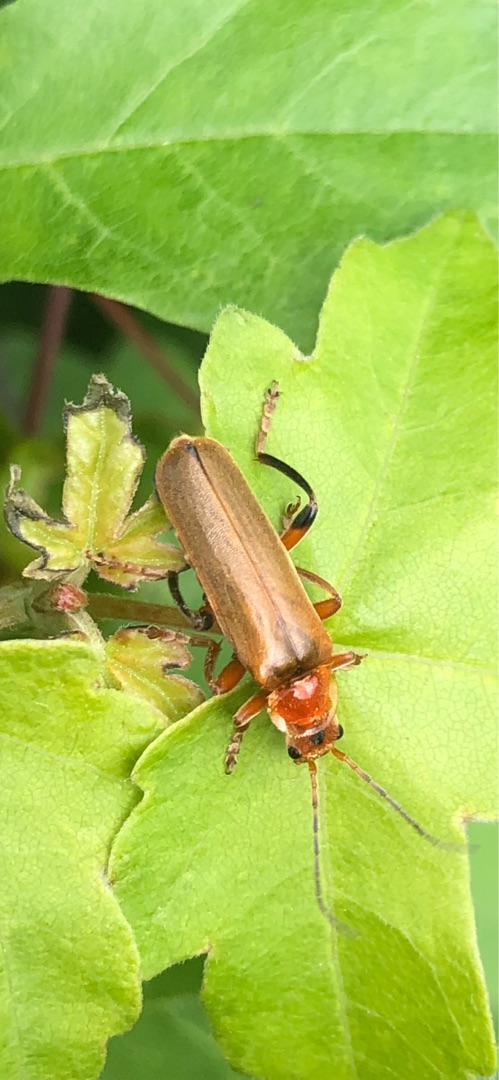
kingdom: Animalia
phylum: Arthropoda
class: Insecta
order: Coleoptera
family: Cantharidae
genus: Cantharis
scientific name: Cantharis livida
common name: Gul blødvinge
